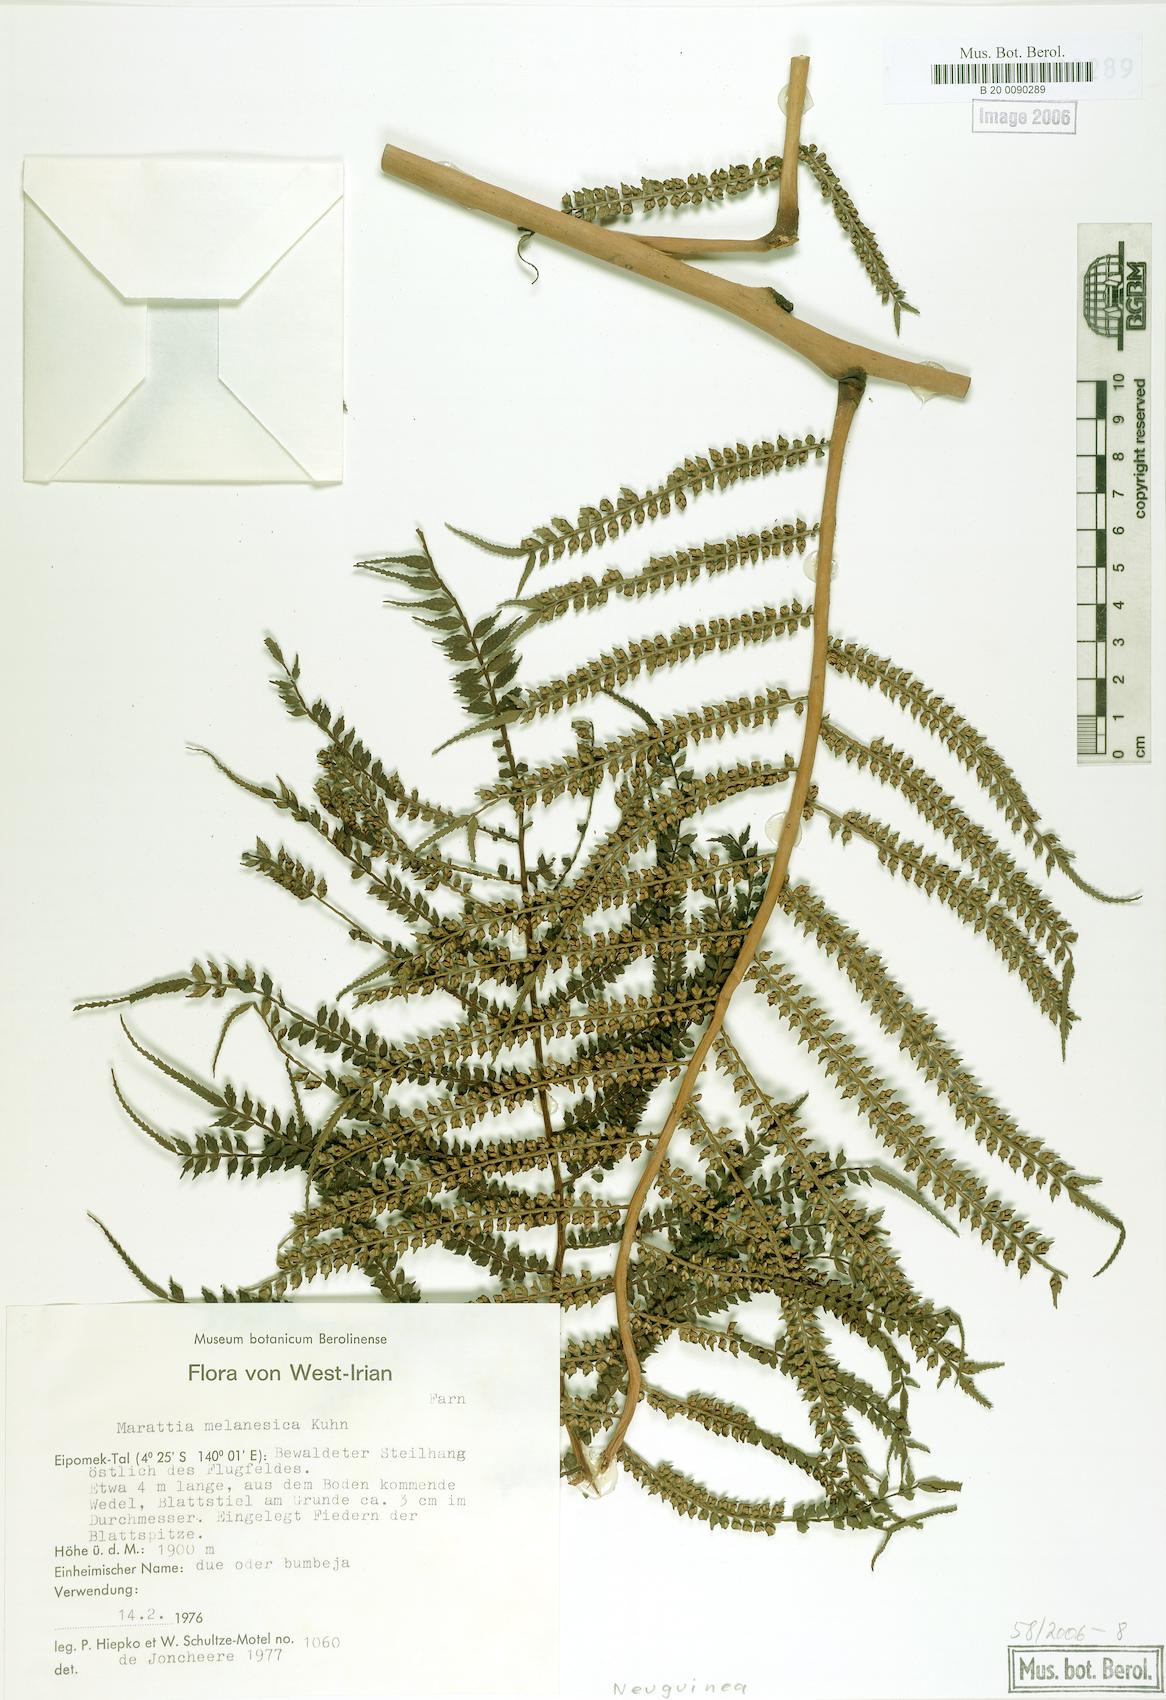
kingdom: Plantae
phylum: Tracheophyta
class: Polypodiopsida
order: Marattiales
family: Marattiaceae
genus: Ptisana
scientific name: Ptisana melanesica
